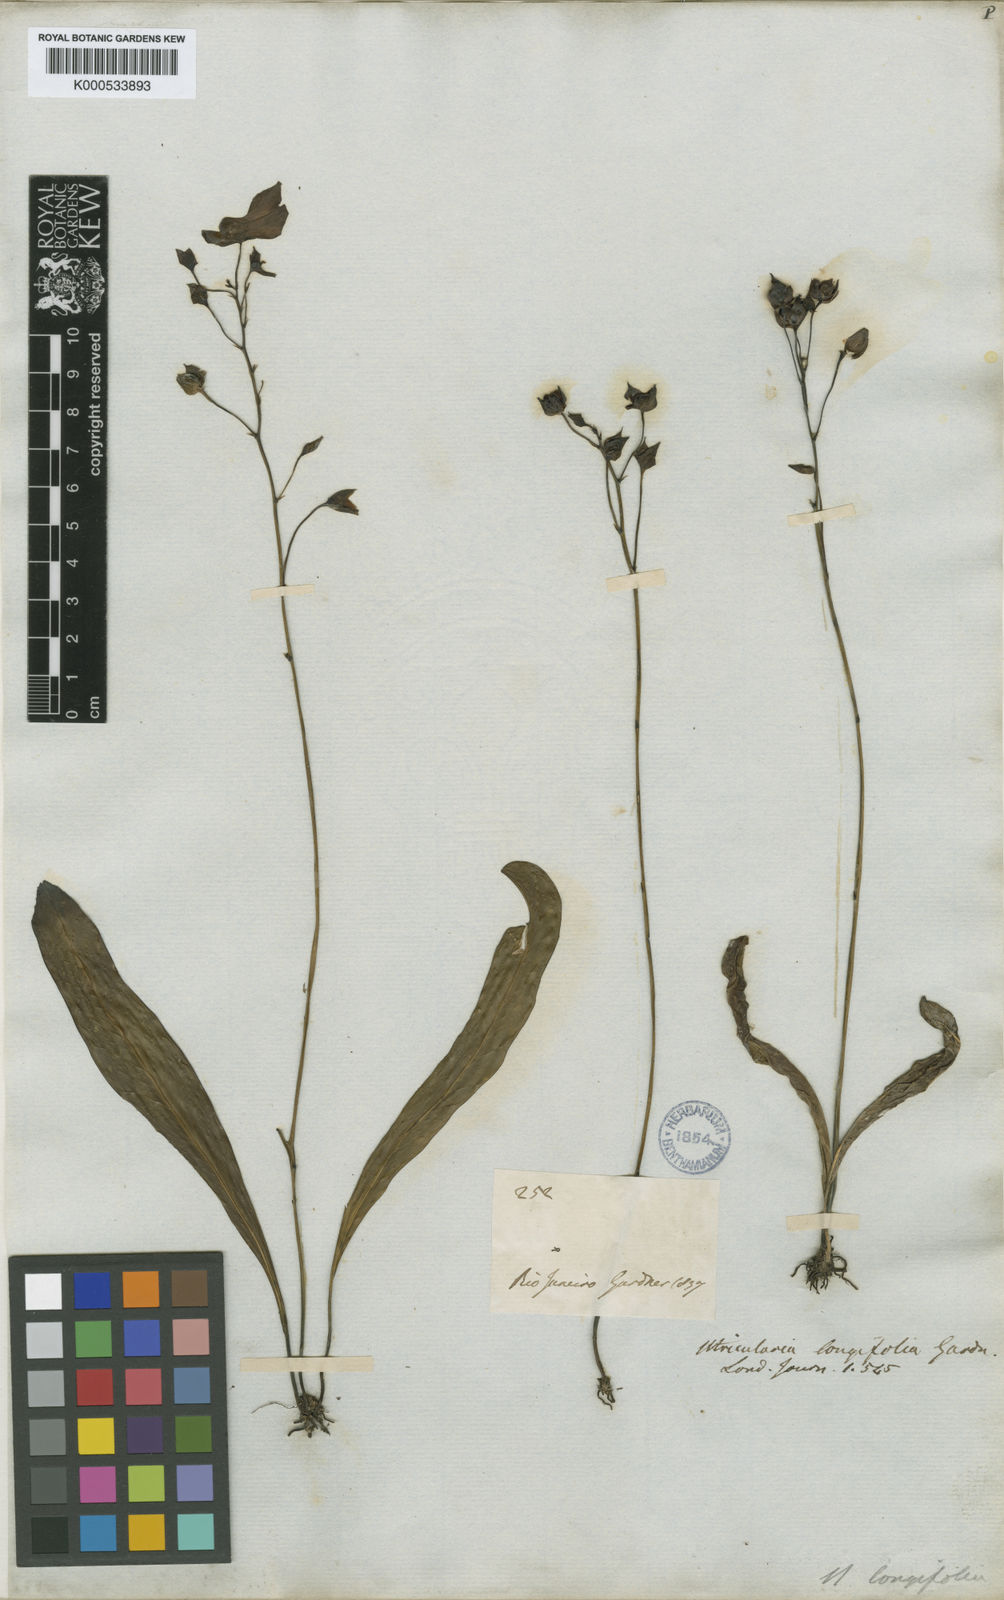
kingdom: Plantae
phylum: Tracheophyta
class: Magnoliopsida
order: Lamiales
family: Lentibulariaceae
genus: Utricularia
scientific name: Utricularia longifolia
